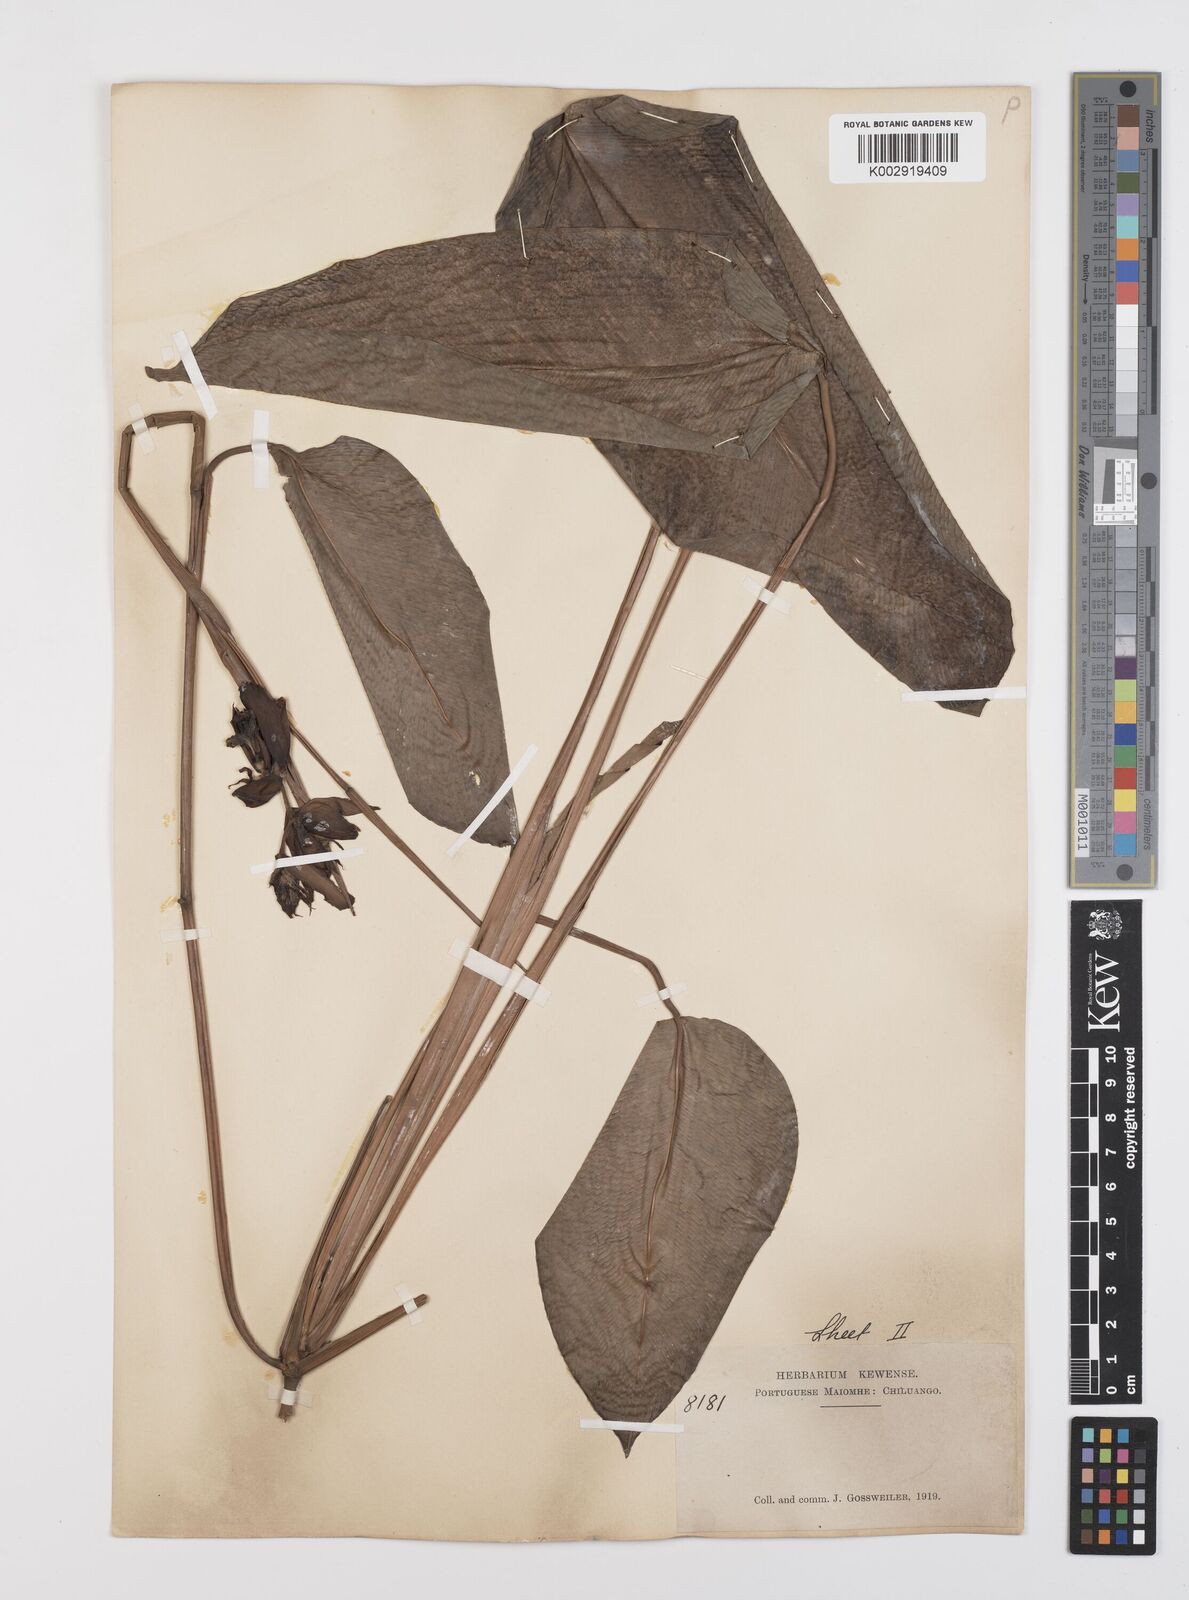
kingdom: Plantae
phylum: Tracheophyta
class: Liliopsida
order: Zingiberales
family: Marantaceae
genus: Haumania
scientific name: Haumania liebrechtsiana
